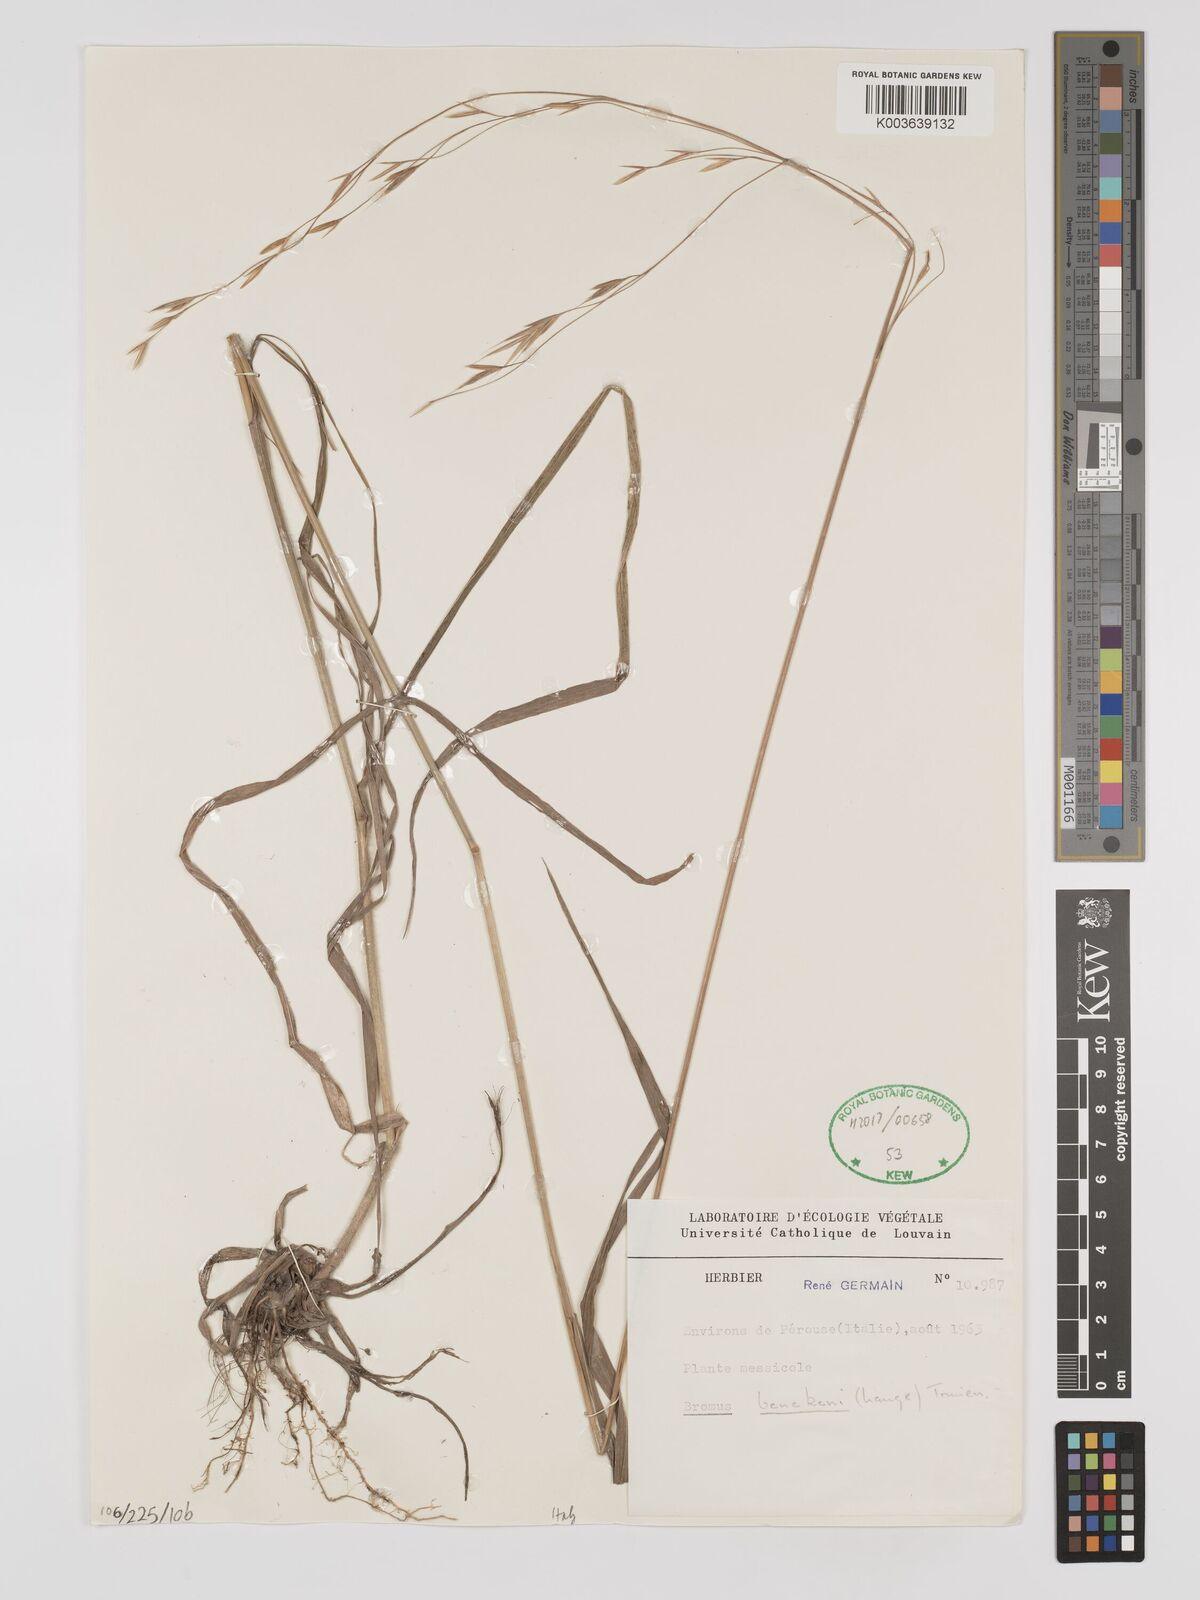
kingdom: Plantae
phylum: Tracheophyta
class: Liliopsida
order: Poales
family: Poaceae
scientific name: Poaceae
